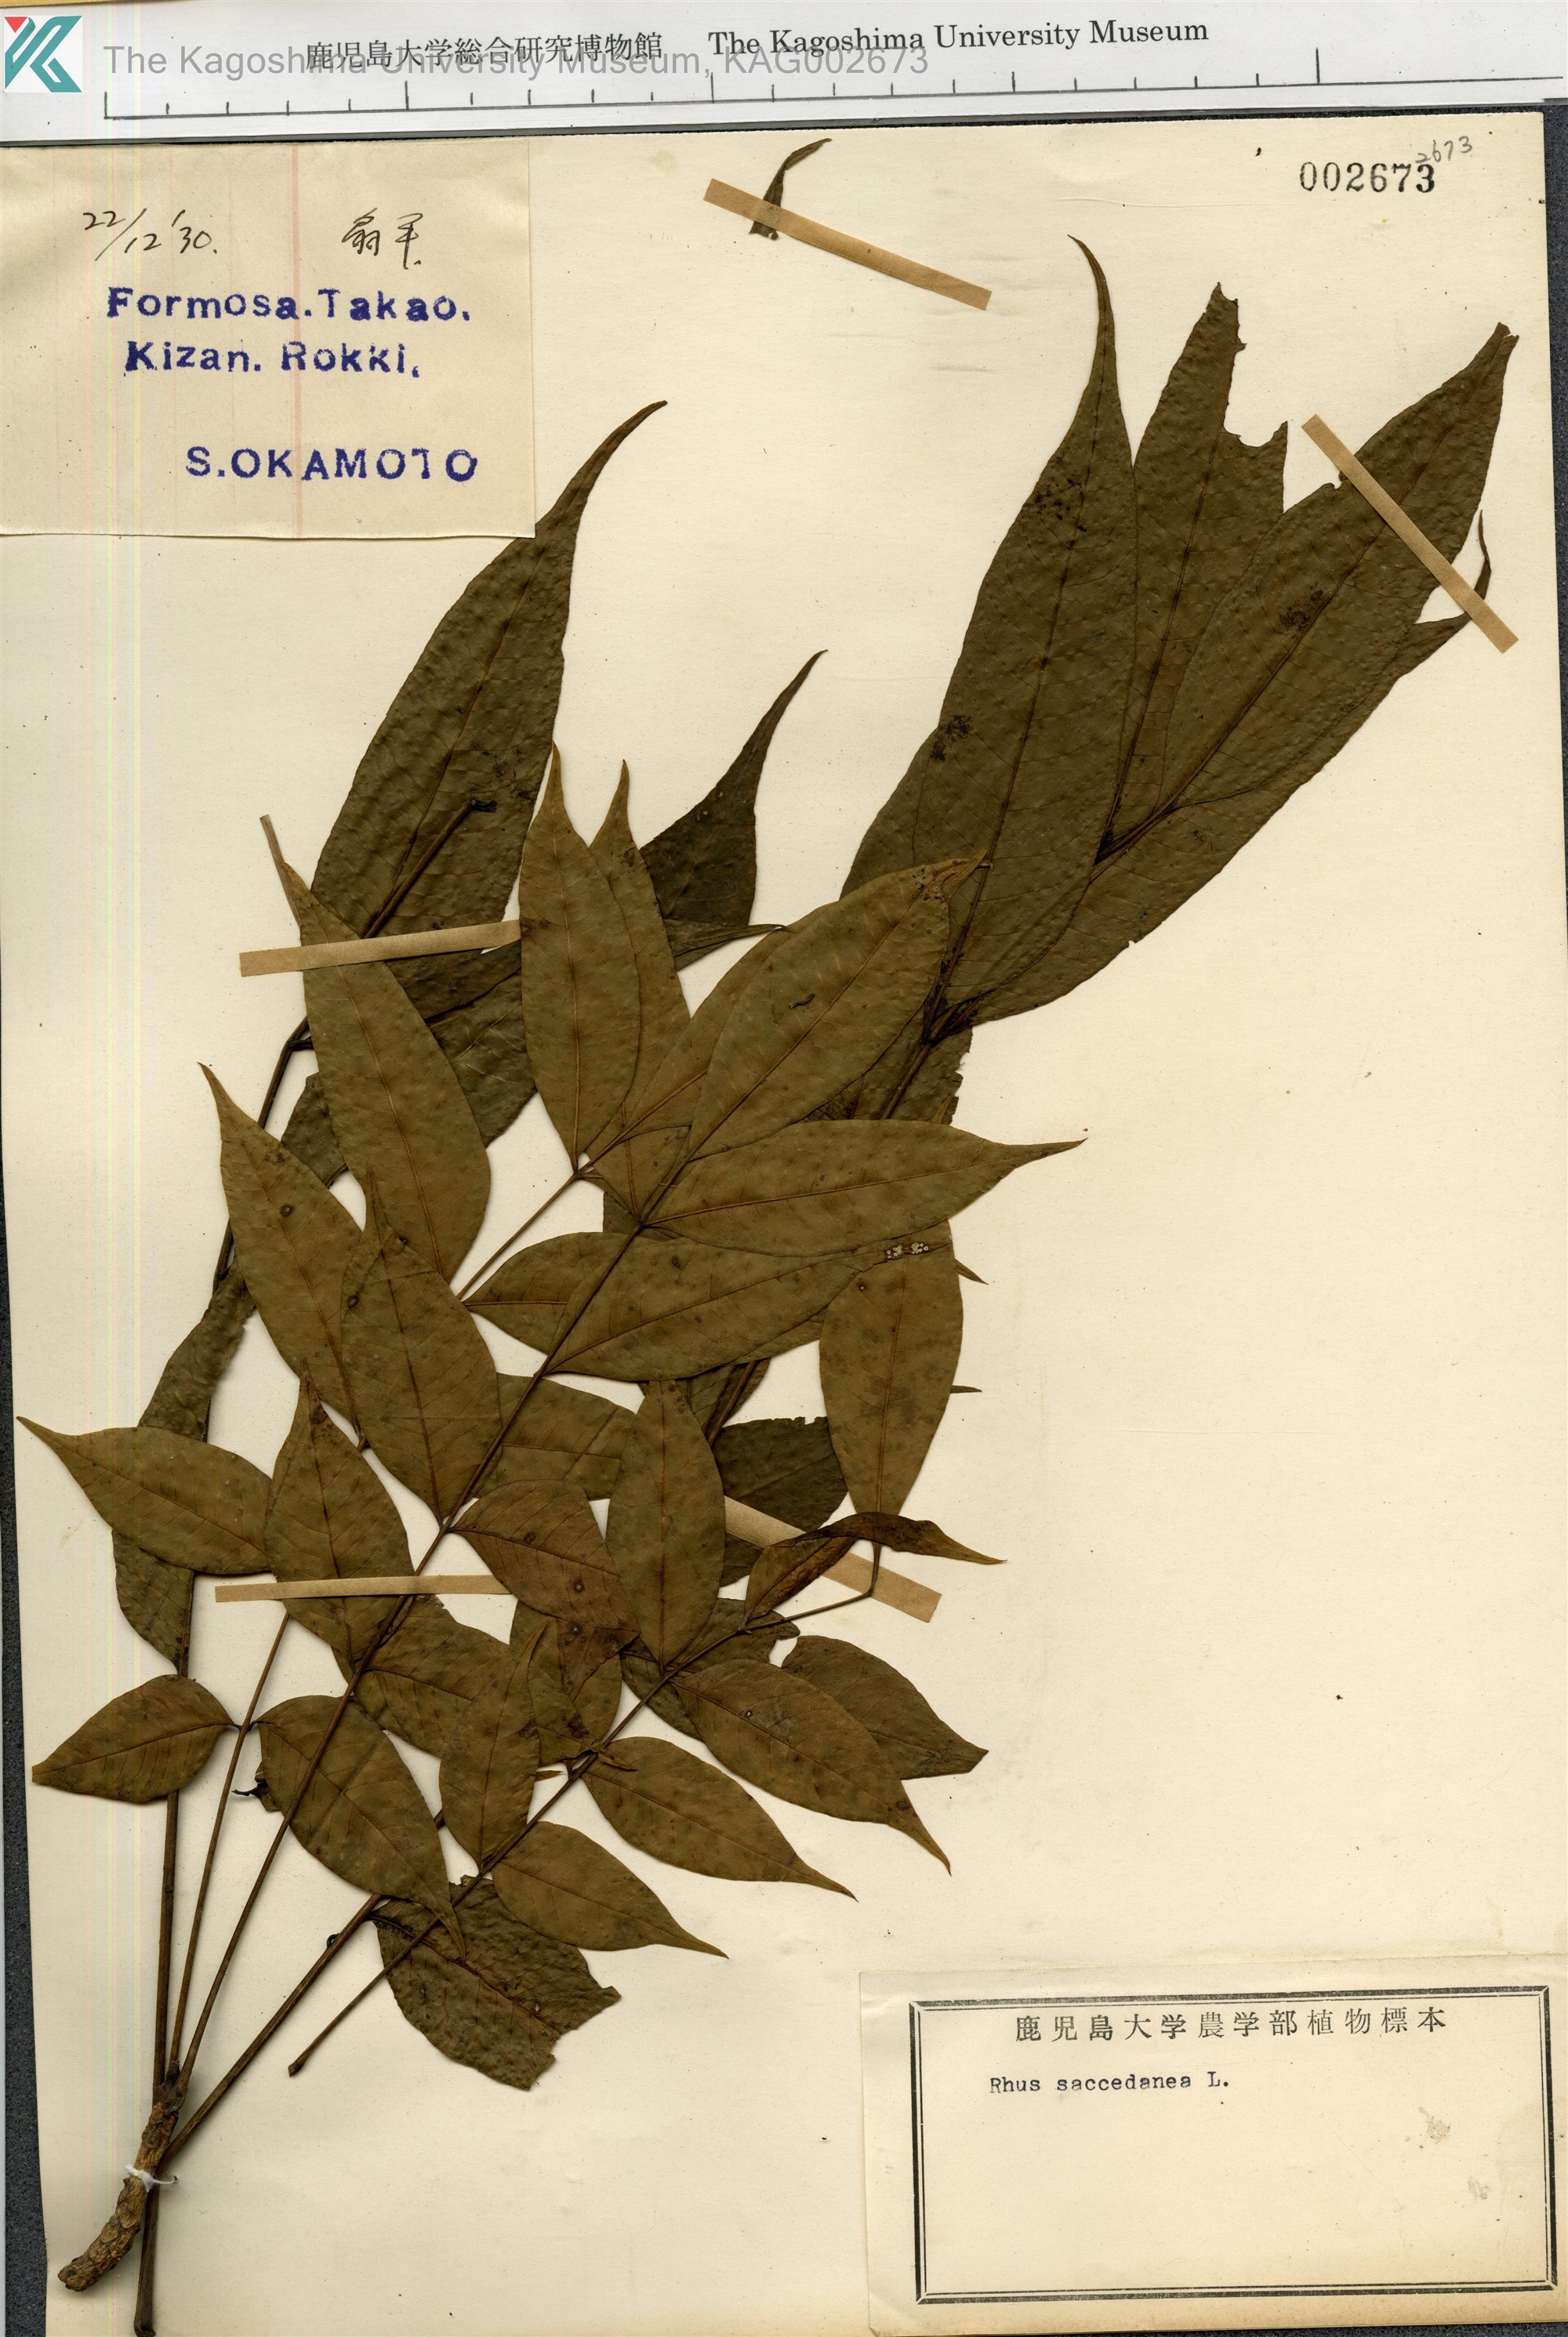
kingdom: Plantae
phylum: Tracheophyta
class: Magnoliopsida
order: Sapindales
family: Anacardiaceae
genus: Toxicodendron
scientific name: Toxicodendron succedaneum
